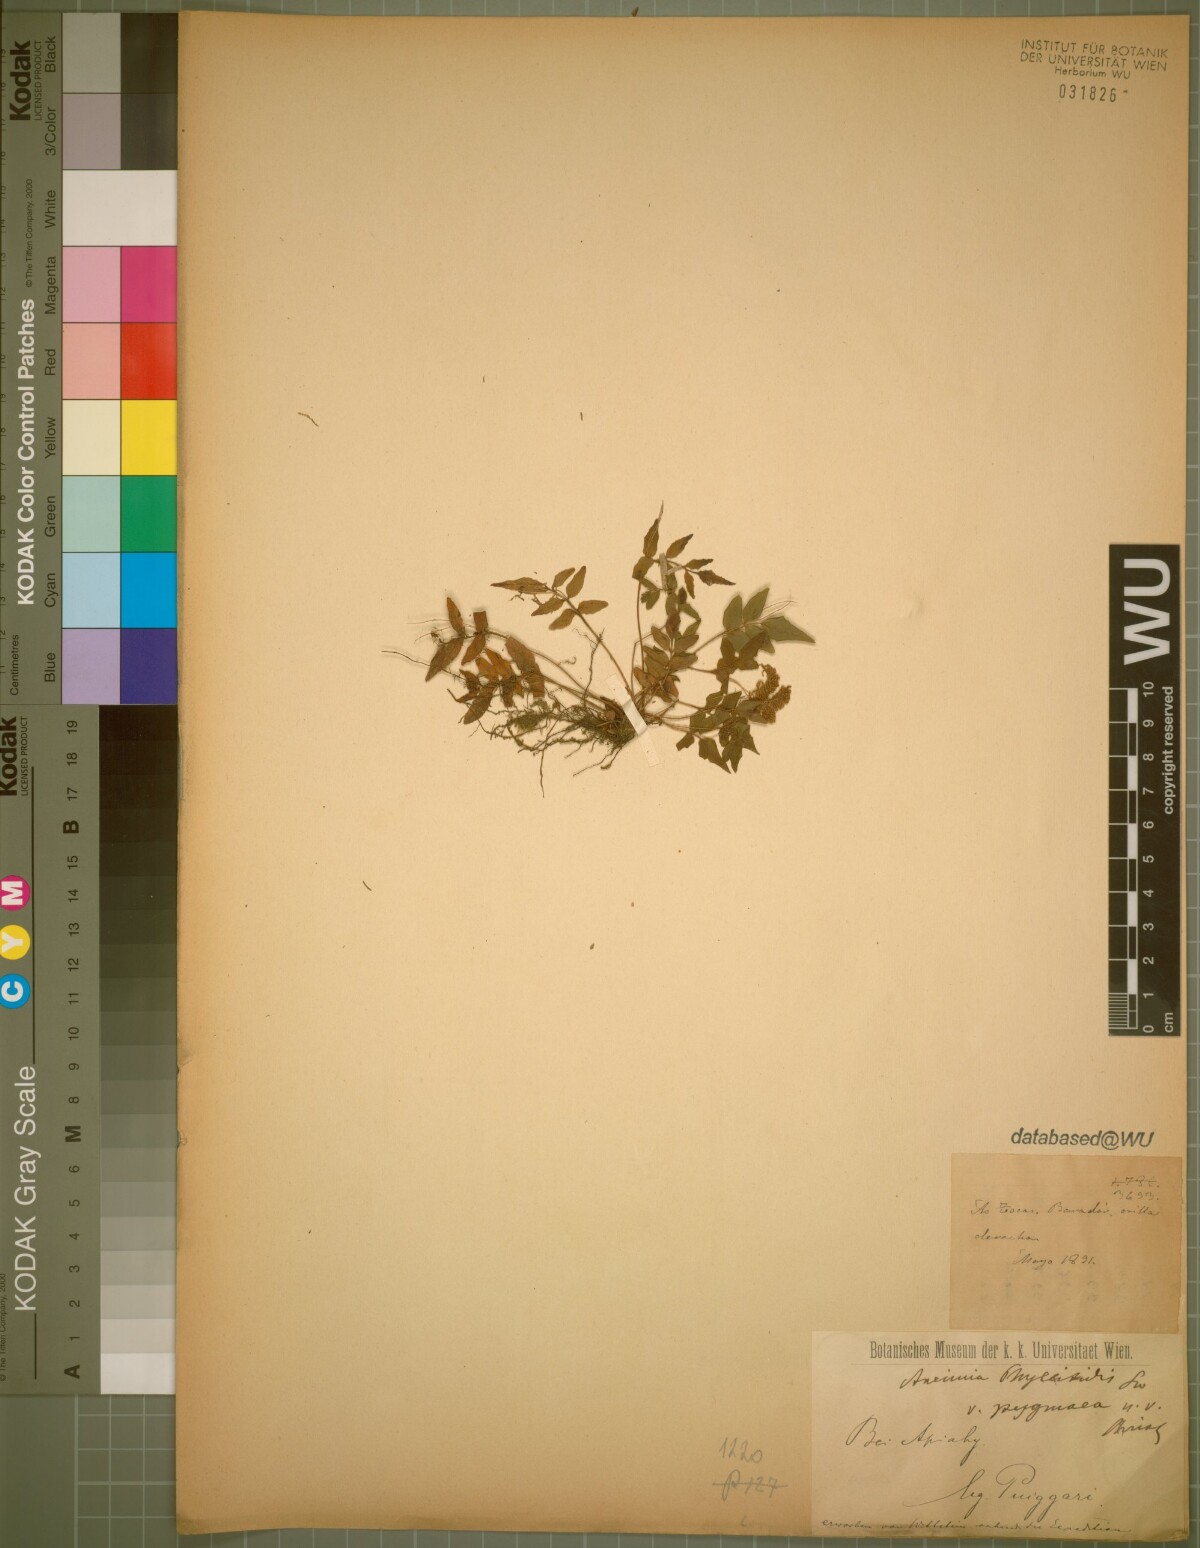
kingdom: Plantae
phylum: Tracheophyta
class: Polypodiopsida
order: Schizaeales
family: Anemiaceae
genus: Anemia
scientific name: Anemia phyllitidis
